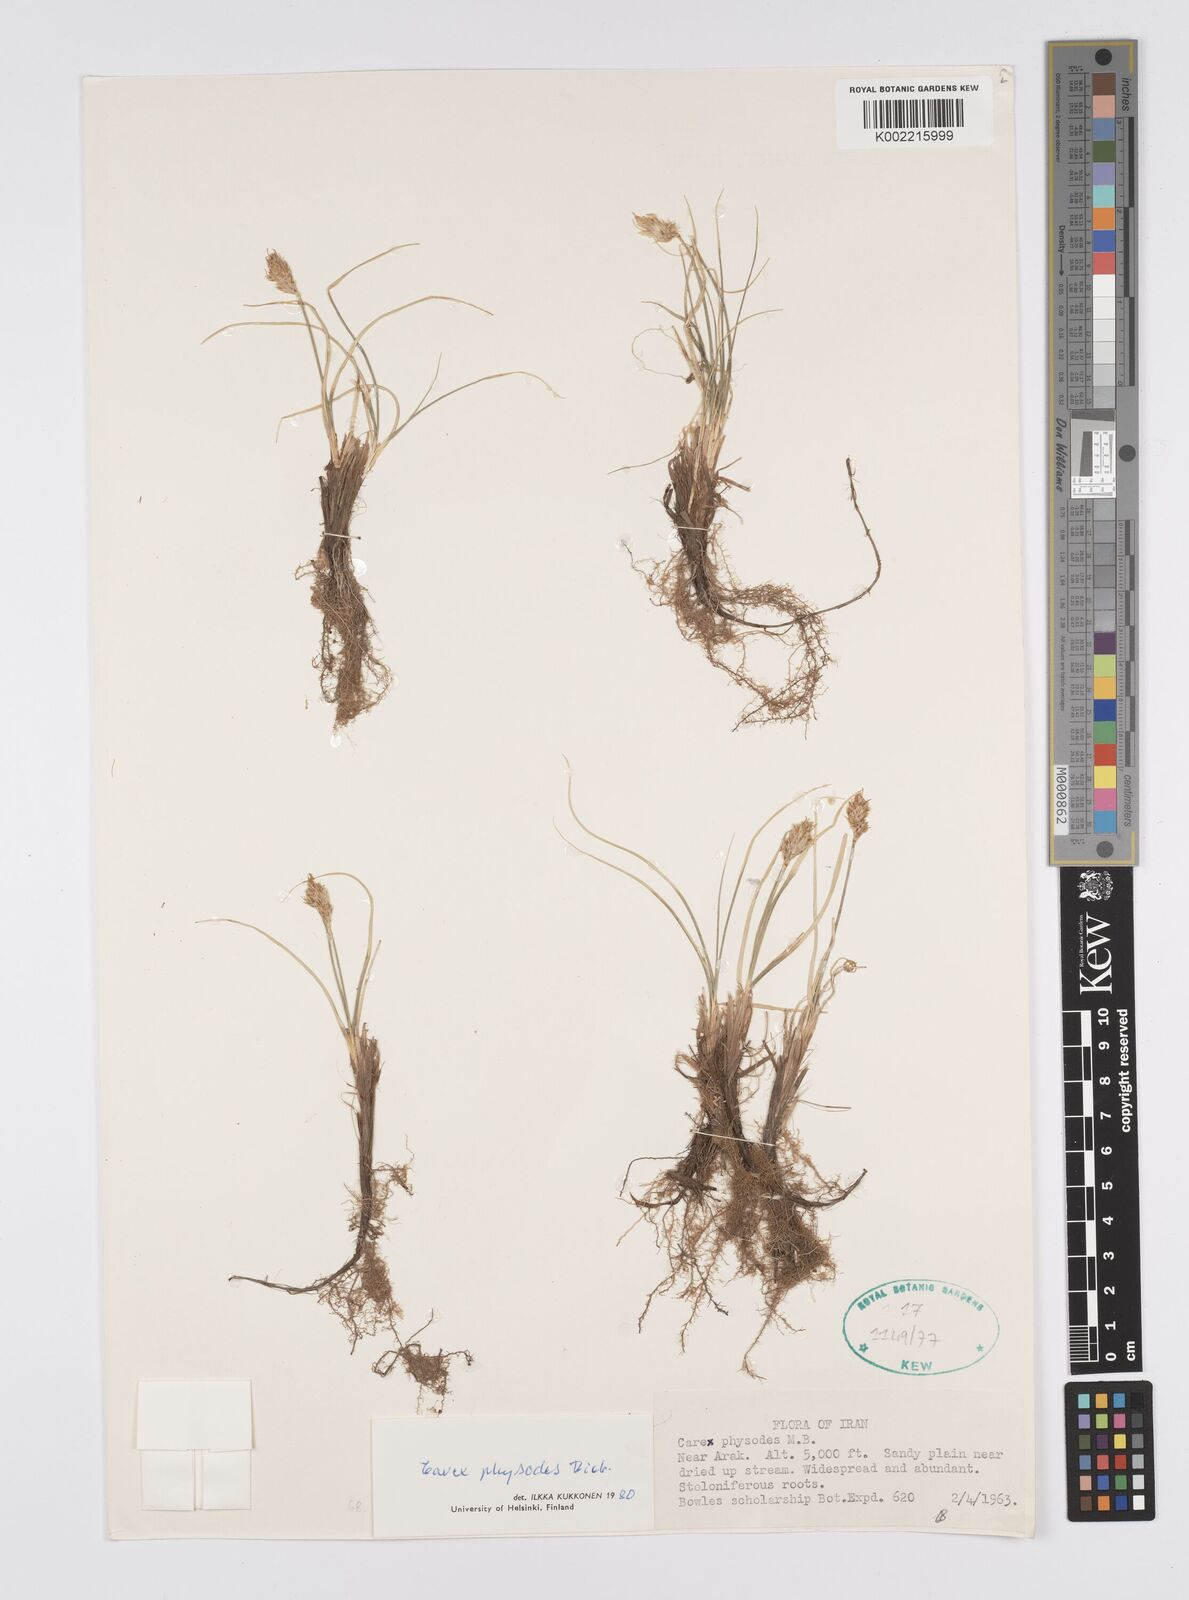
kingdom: Plantae
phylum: Tracheophyta
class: Liliopsida
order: Poales
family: Cyperaceae
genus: Carex
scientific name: Carex physodes
